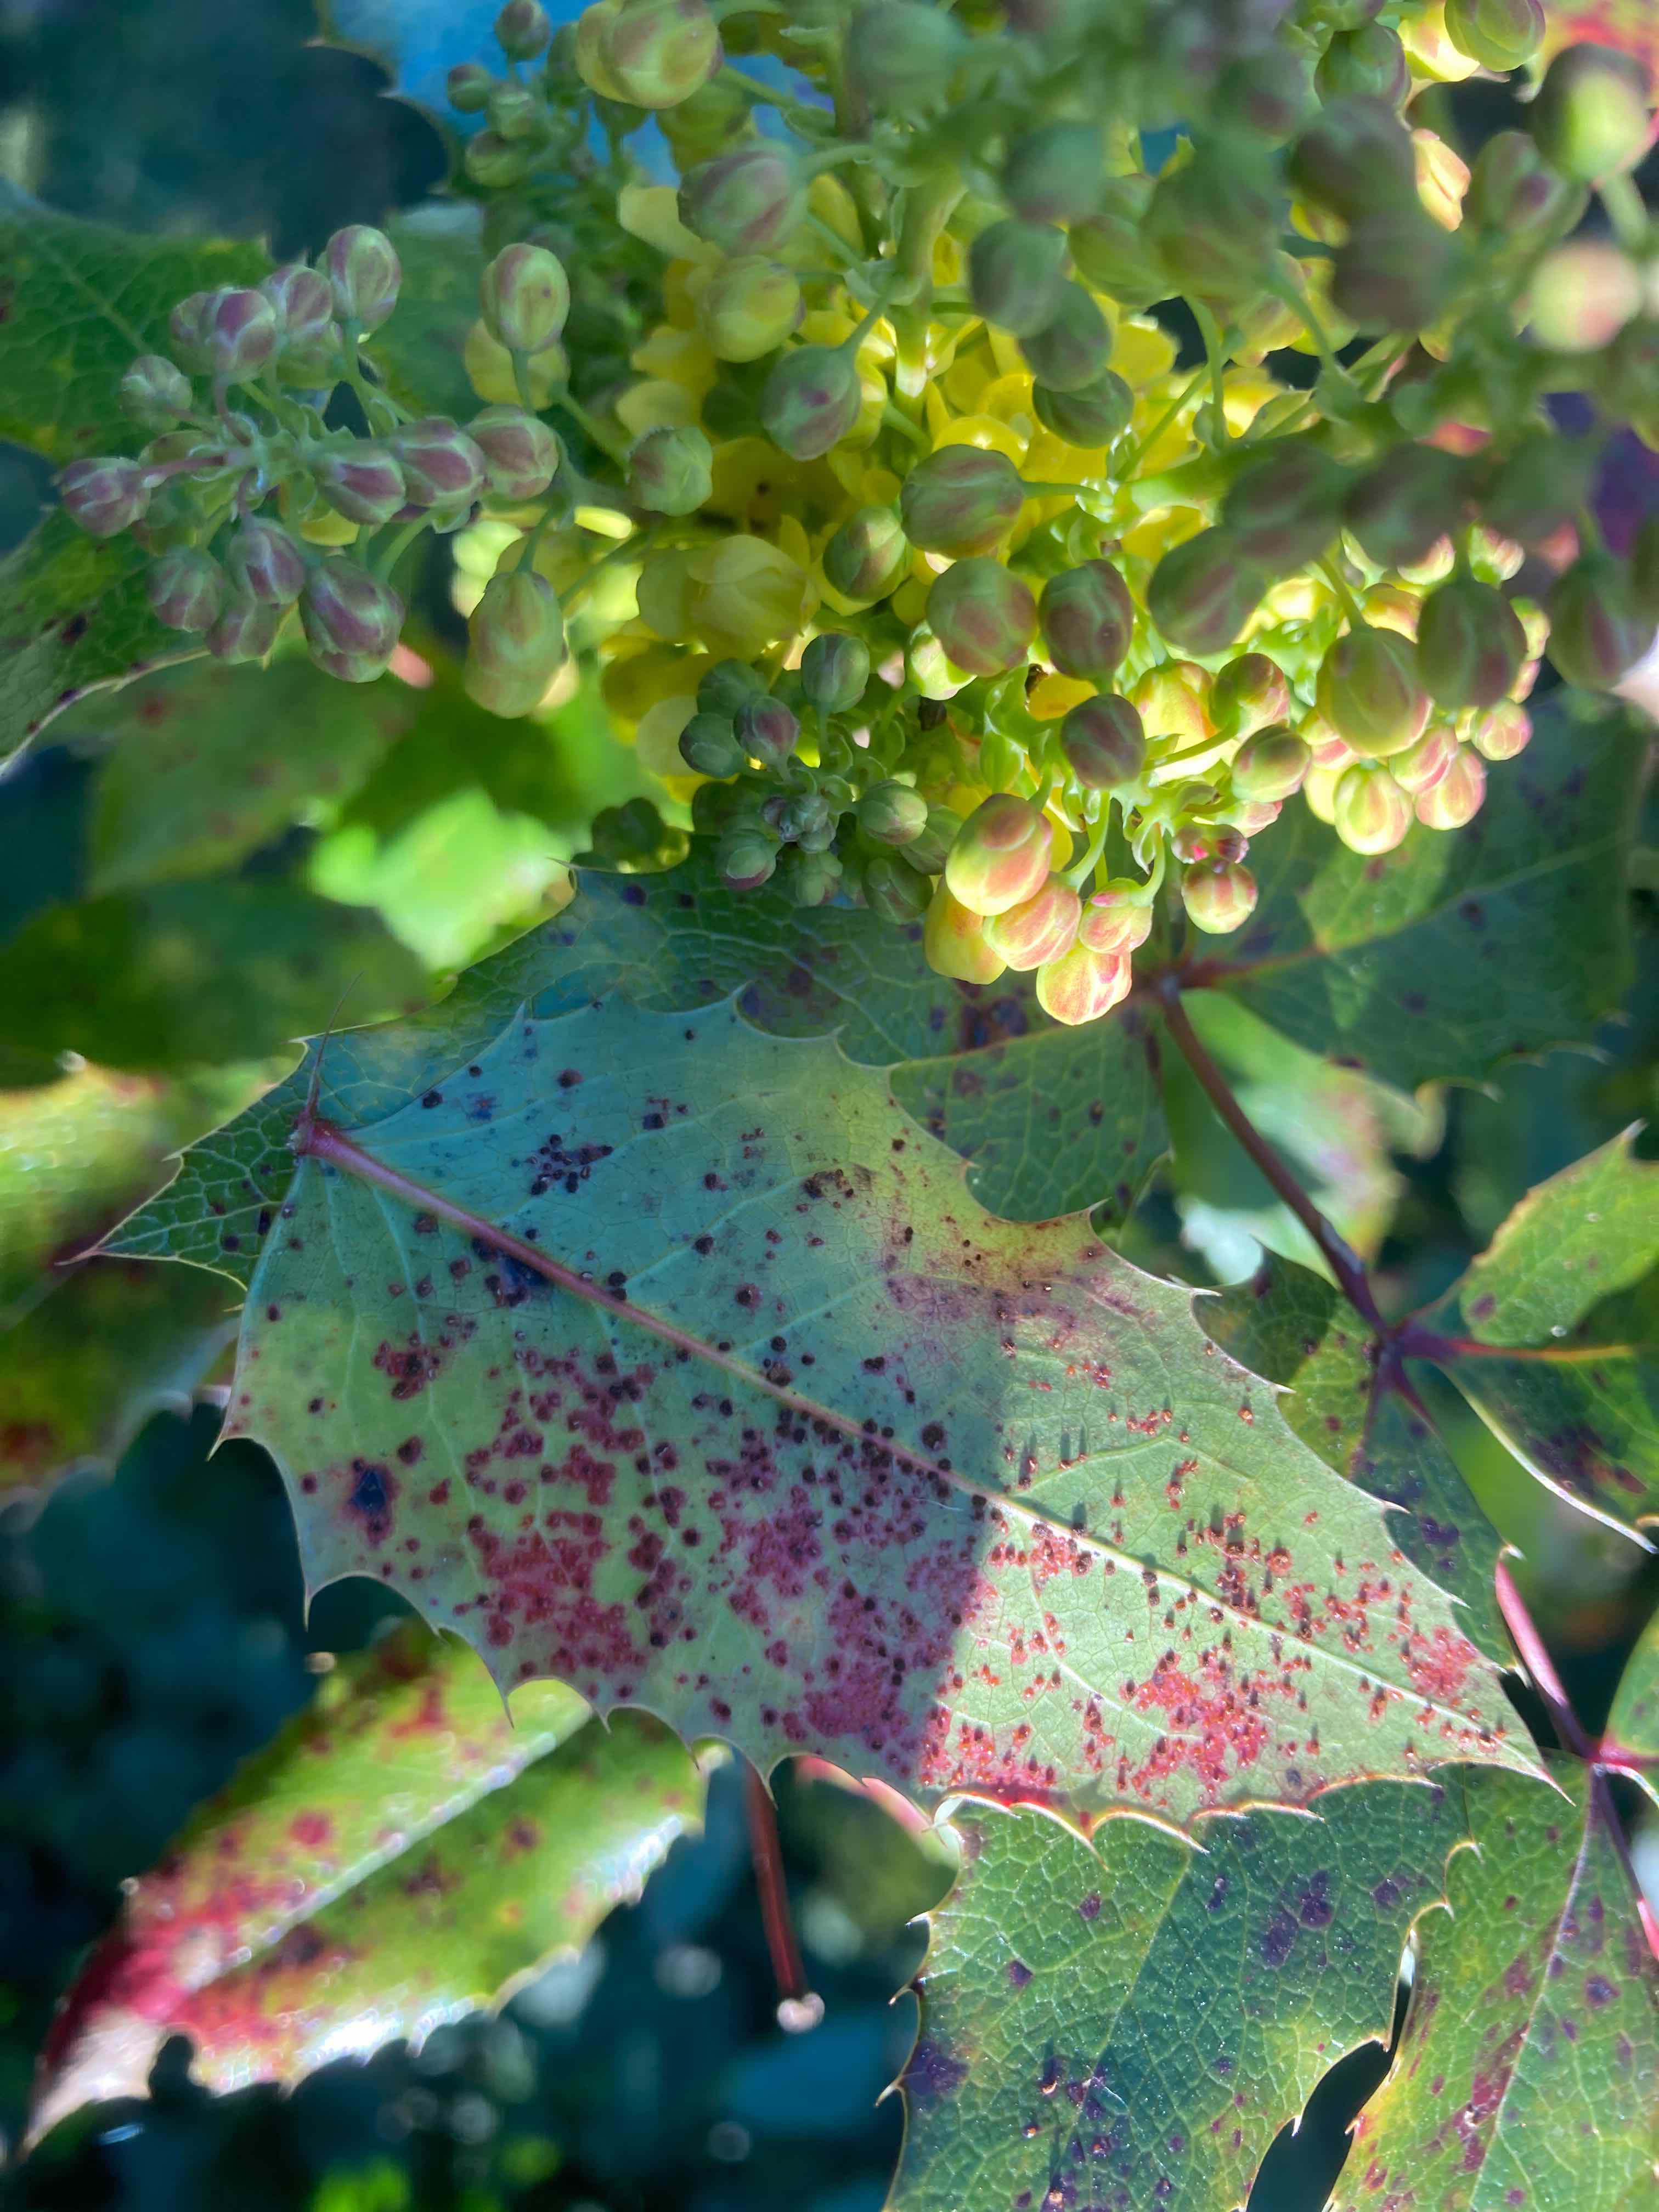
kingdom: Fungi
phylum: Basidiomycota
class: Pucciniomycetes
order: Pucciniales
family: Pucciniaceae
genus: Cumminsiella
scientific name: Cumminsiella mirabilissima
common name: mahonierust
